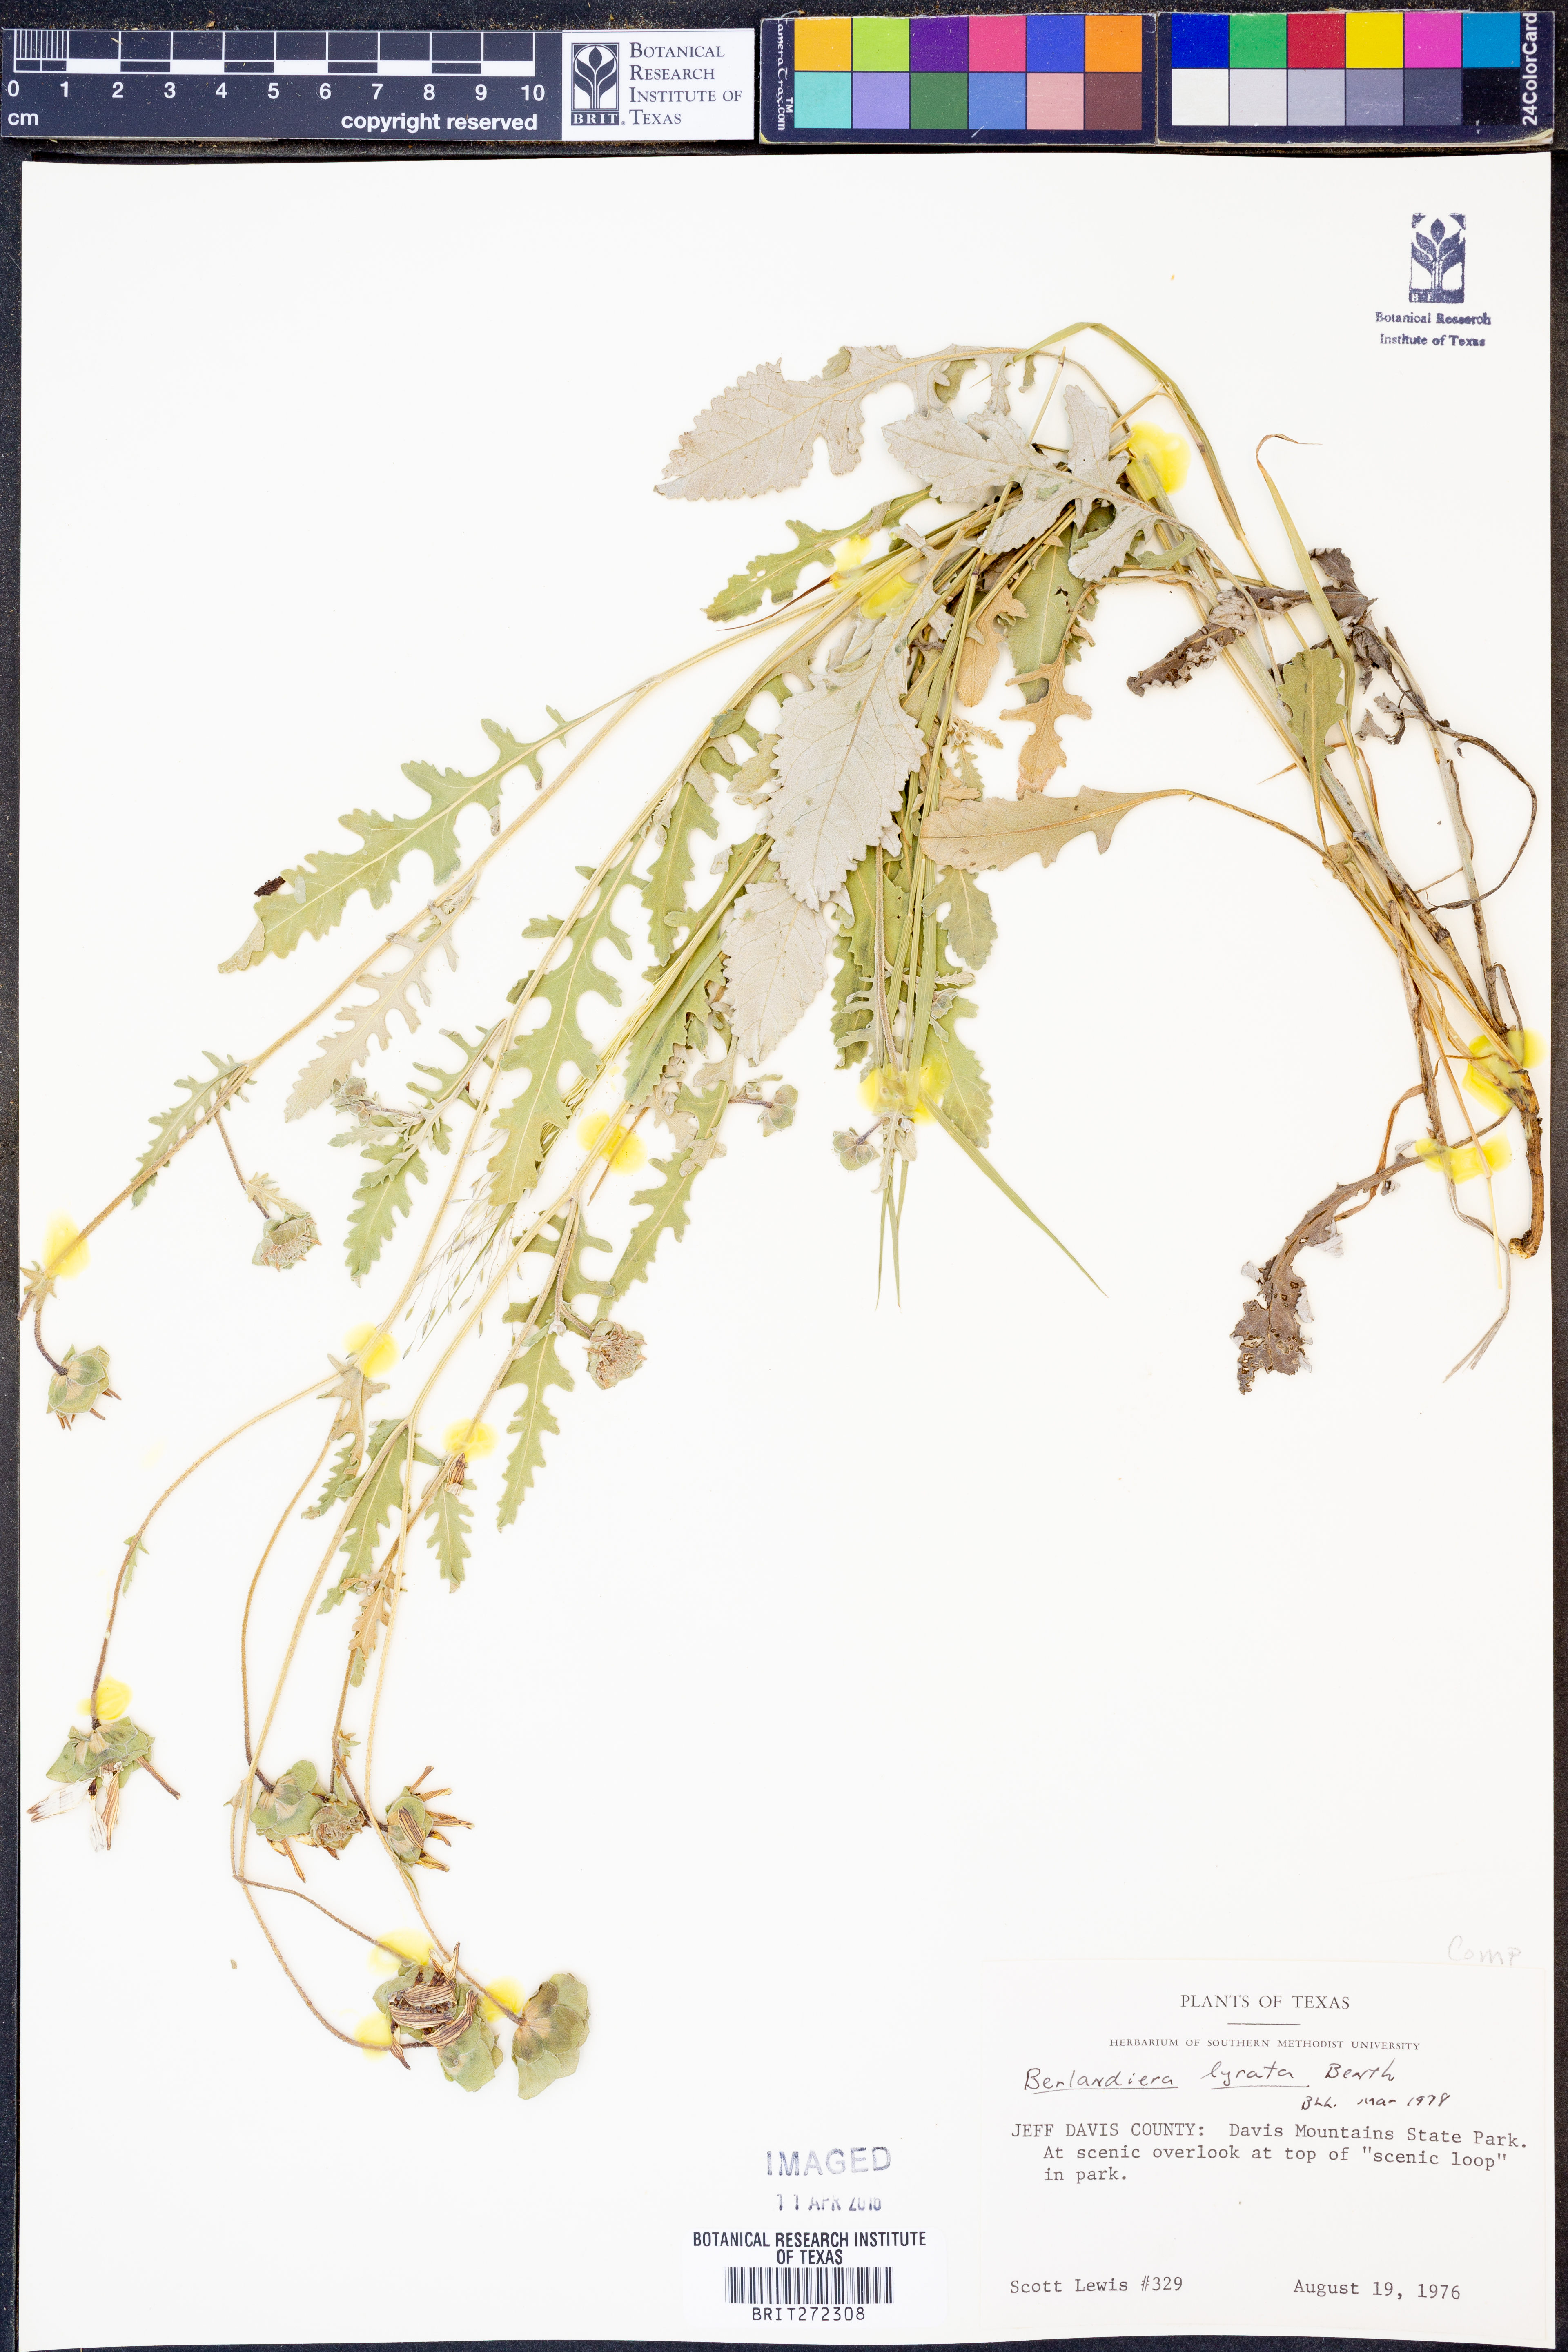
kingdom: Plantae
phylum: Tracheophyta
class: Magnoliopsida
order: Asterales
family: Asteraceae
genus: Berlandiera
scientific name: Berlandiera lyrata
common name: Chocolate-flower
